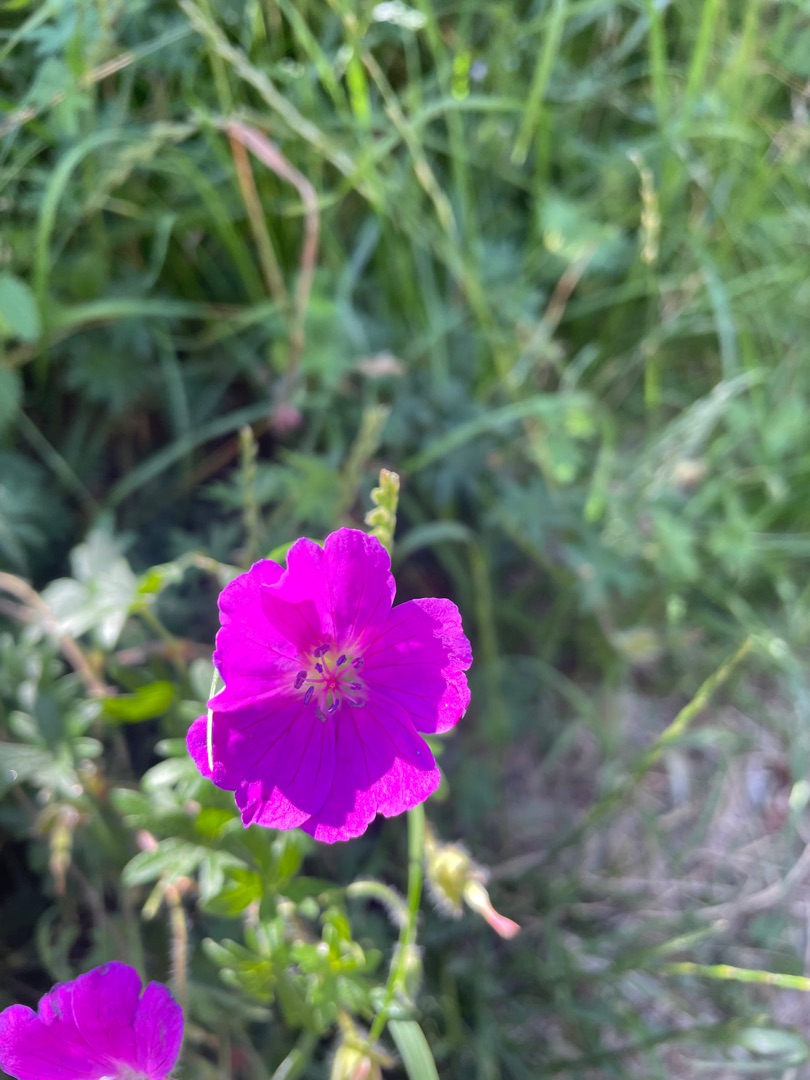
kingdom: Plantae
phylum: Tracheophyta
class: Magnoliopsida
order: Geraniales
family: Geraniaceae
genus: Geranium
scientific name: Geranium sanguineum
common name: Blodrød storkenæb
